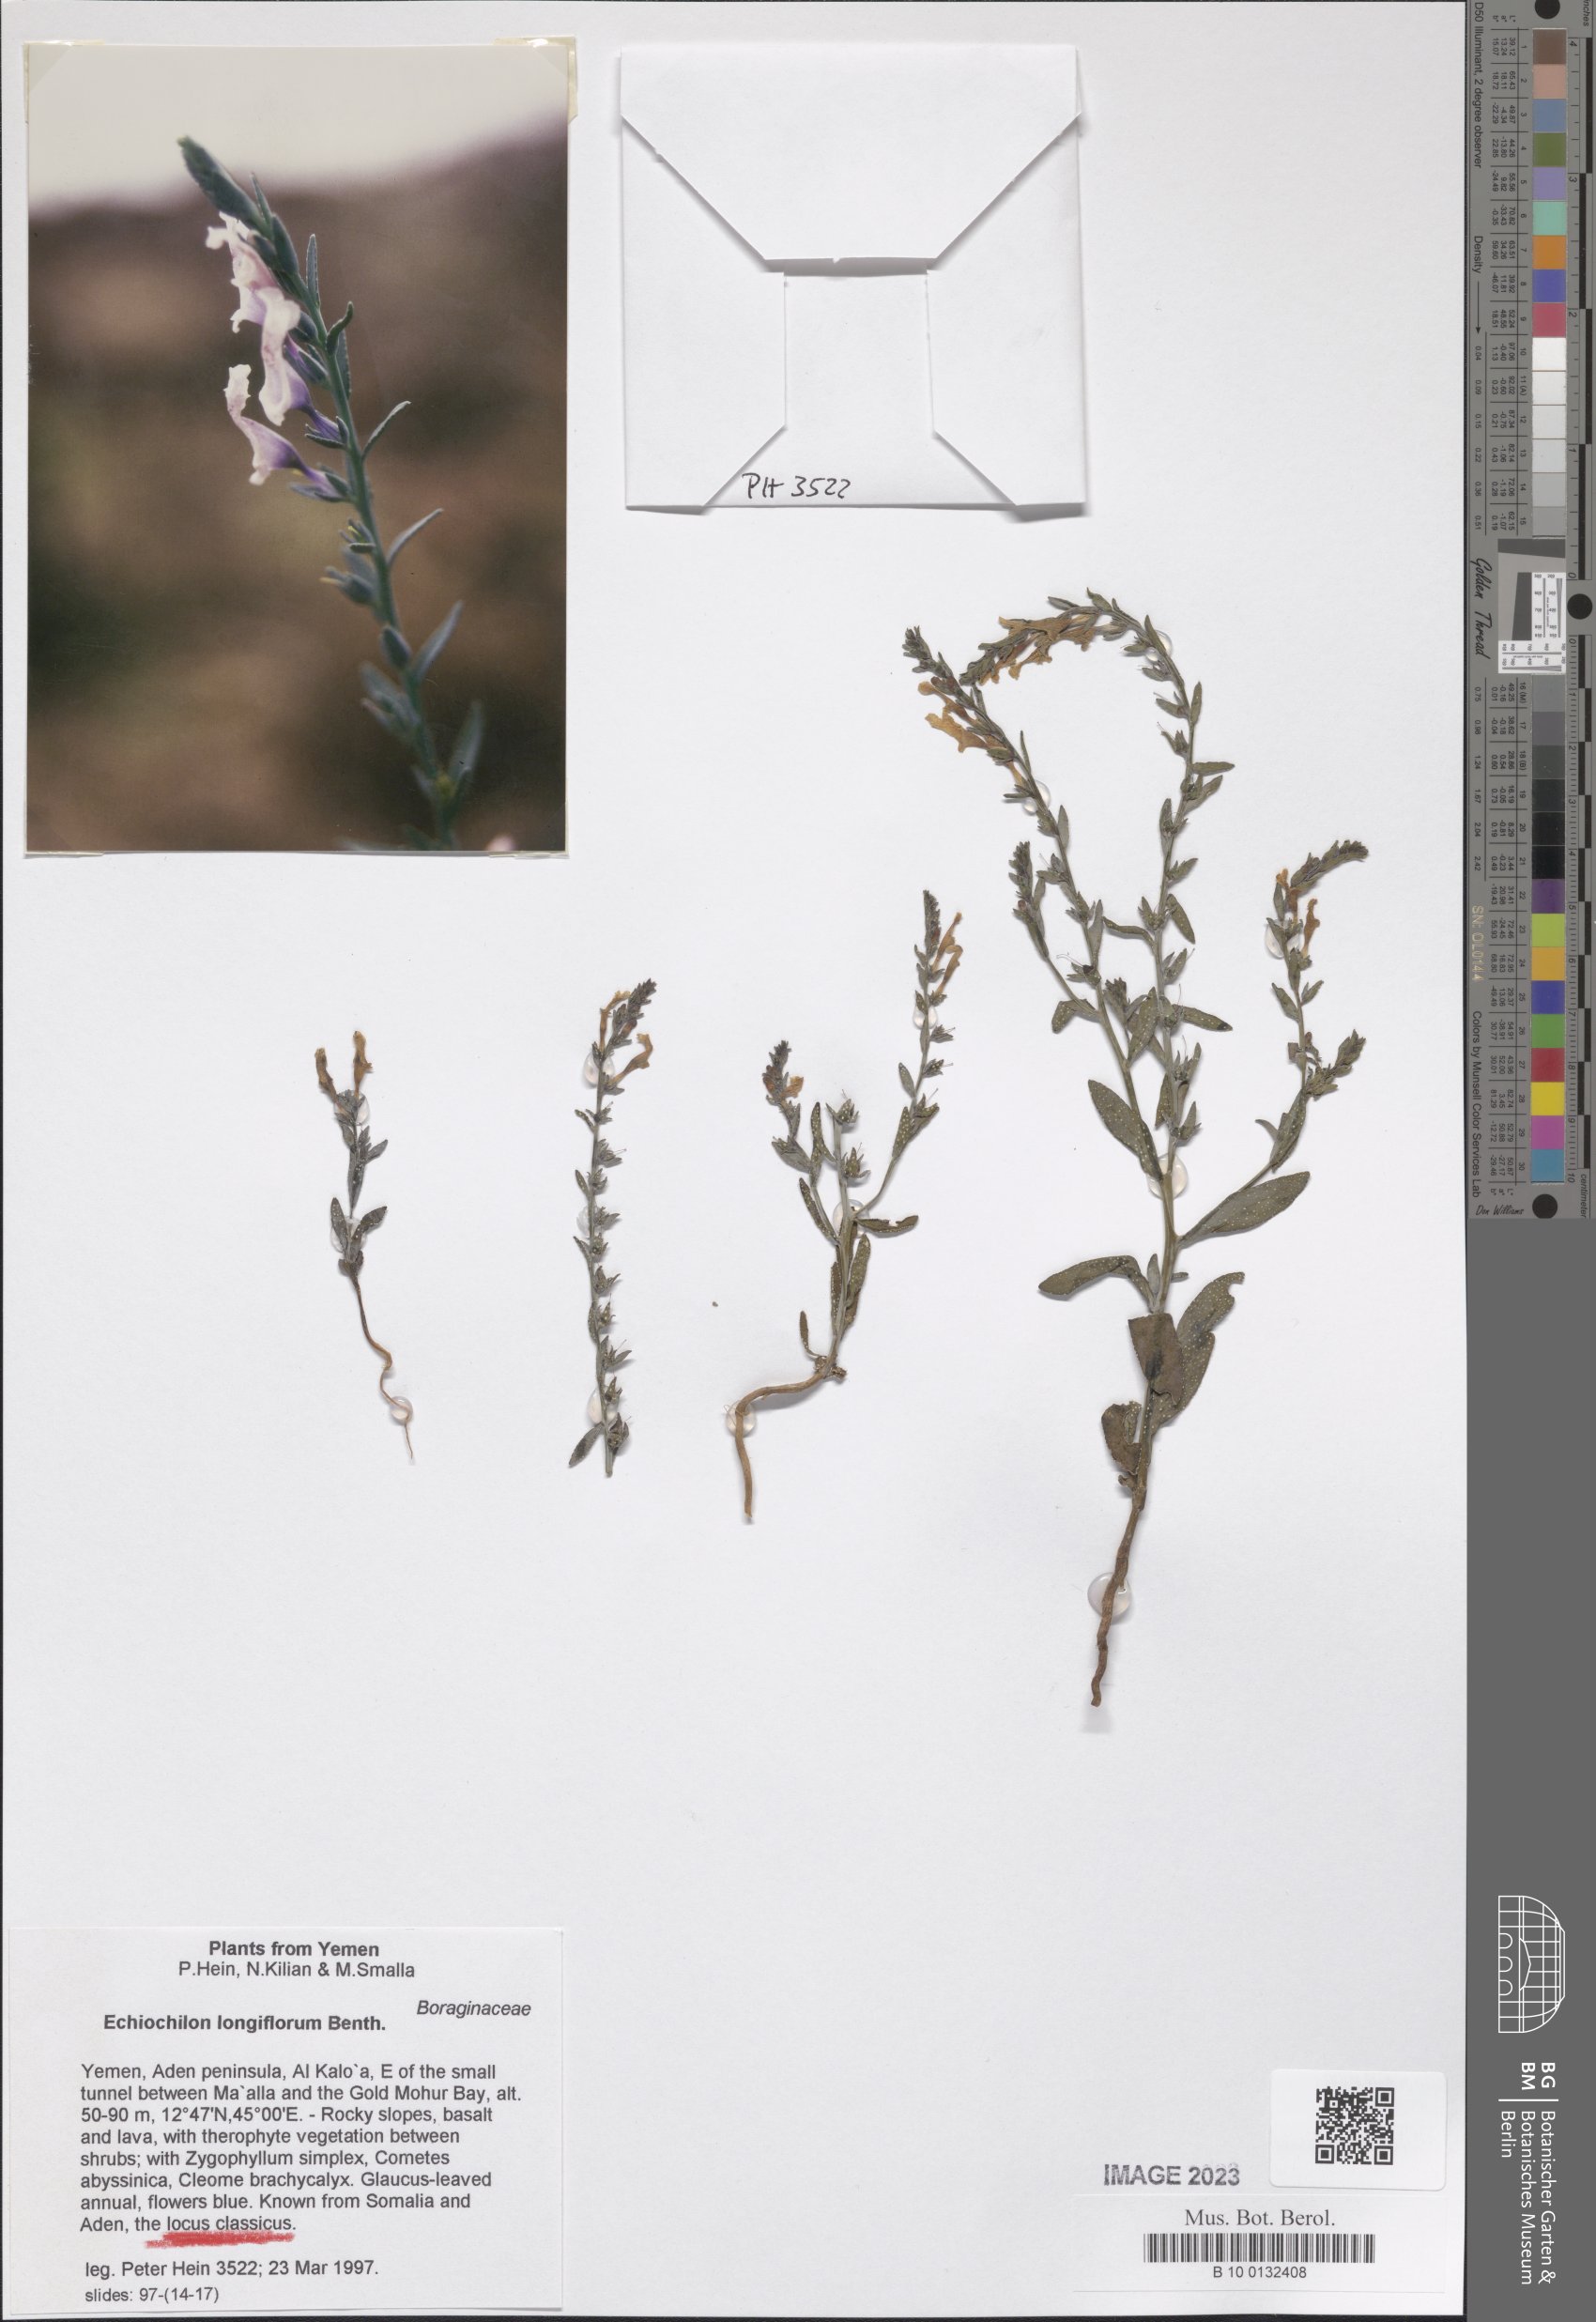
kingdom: Plantae
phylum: Tracheophyta
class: Magnoliopsida
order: Boraginales
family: Boraginaceae
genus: Echiochilon
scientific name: Echiochilon longiflorum
